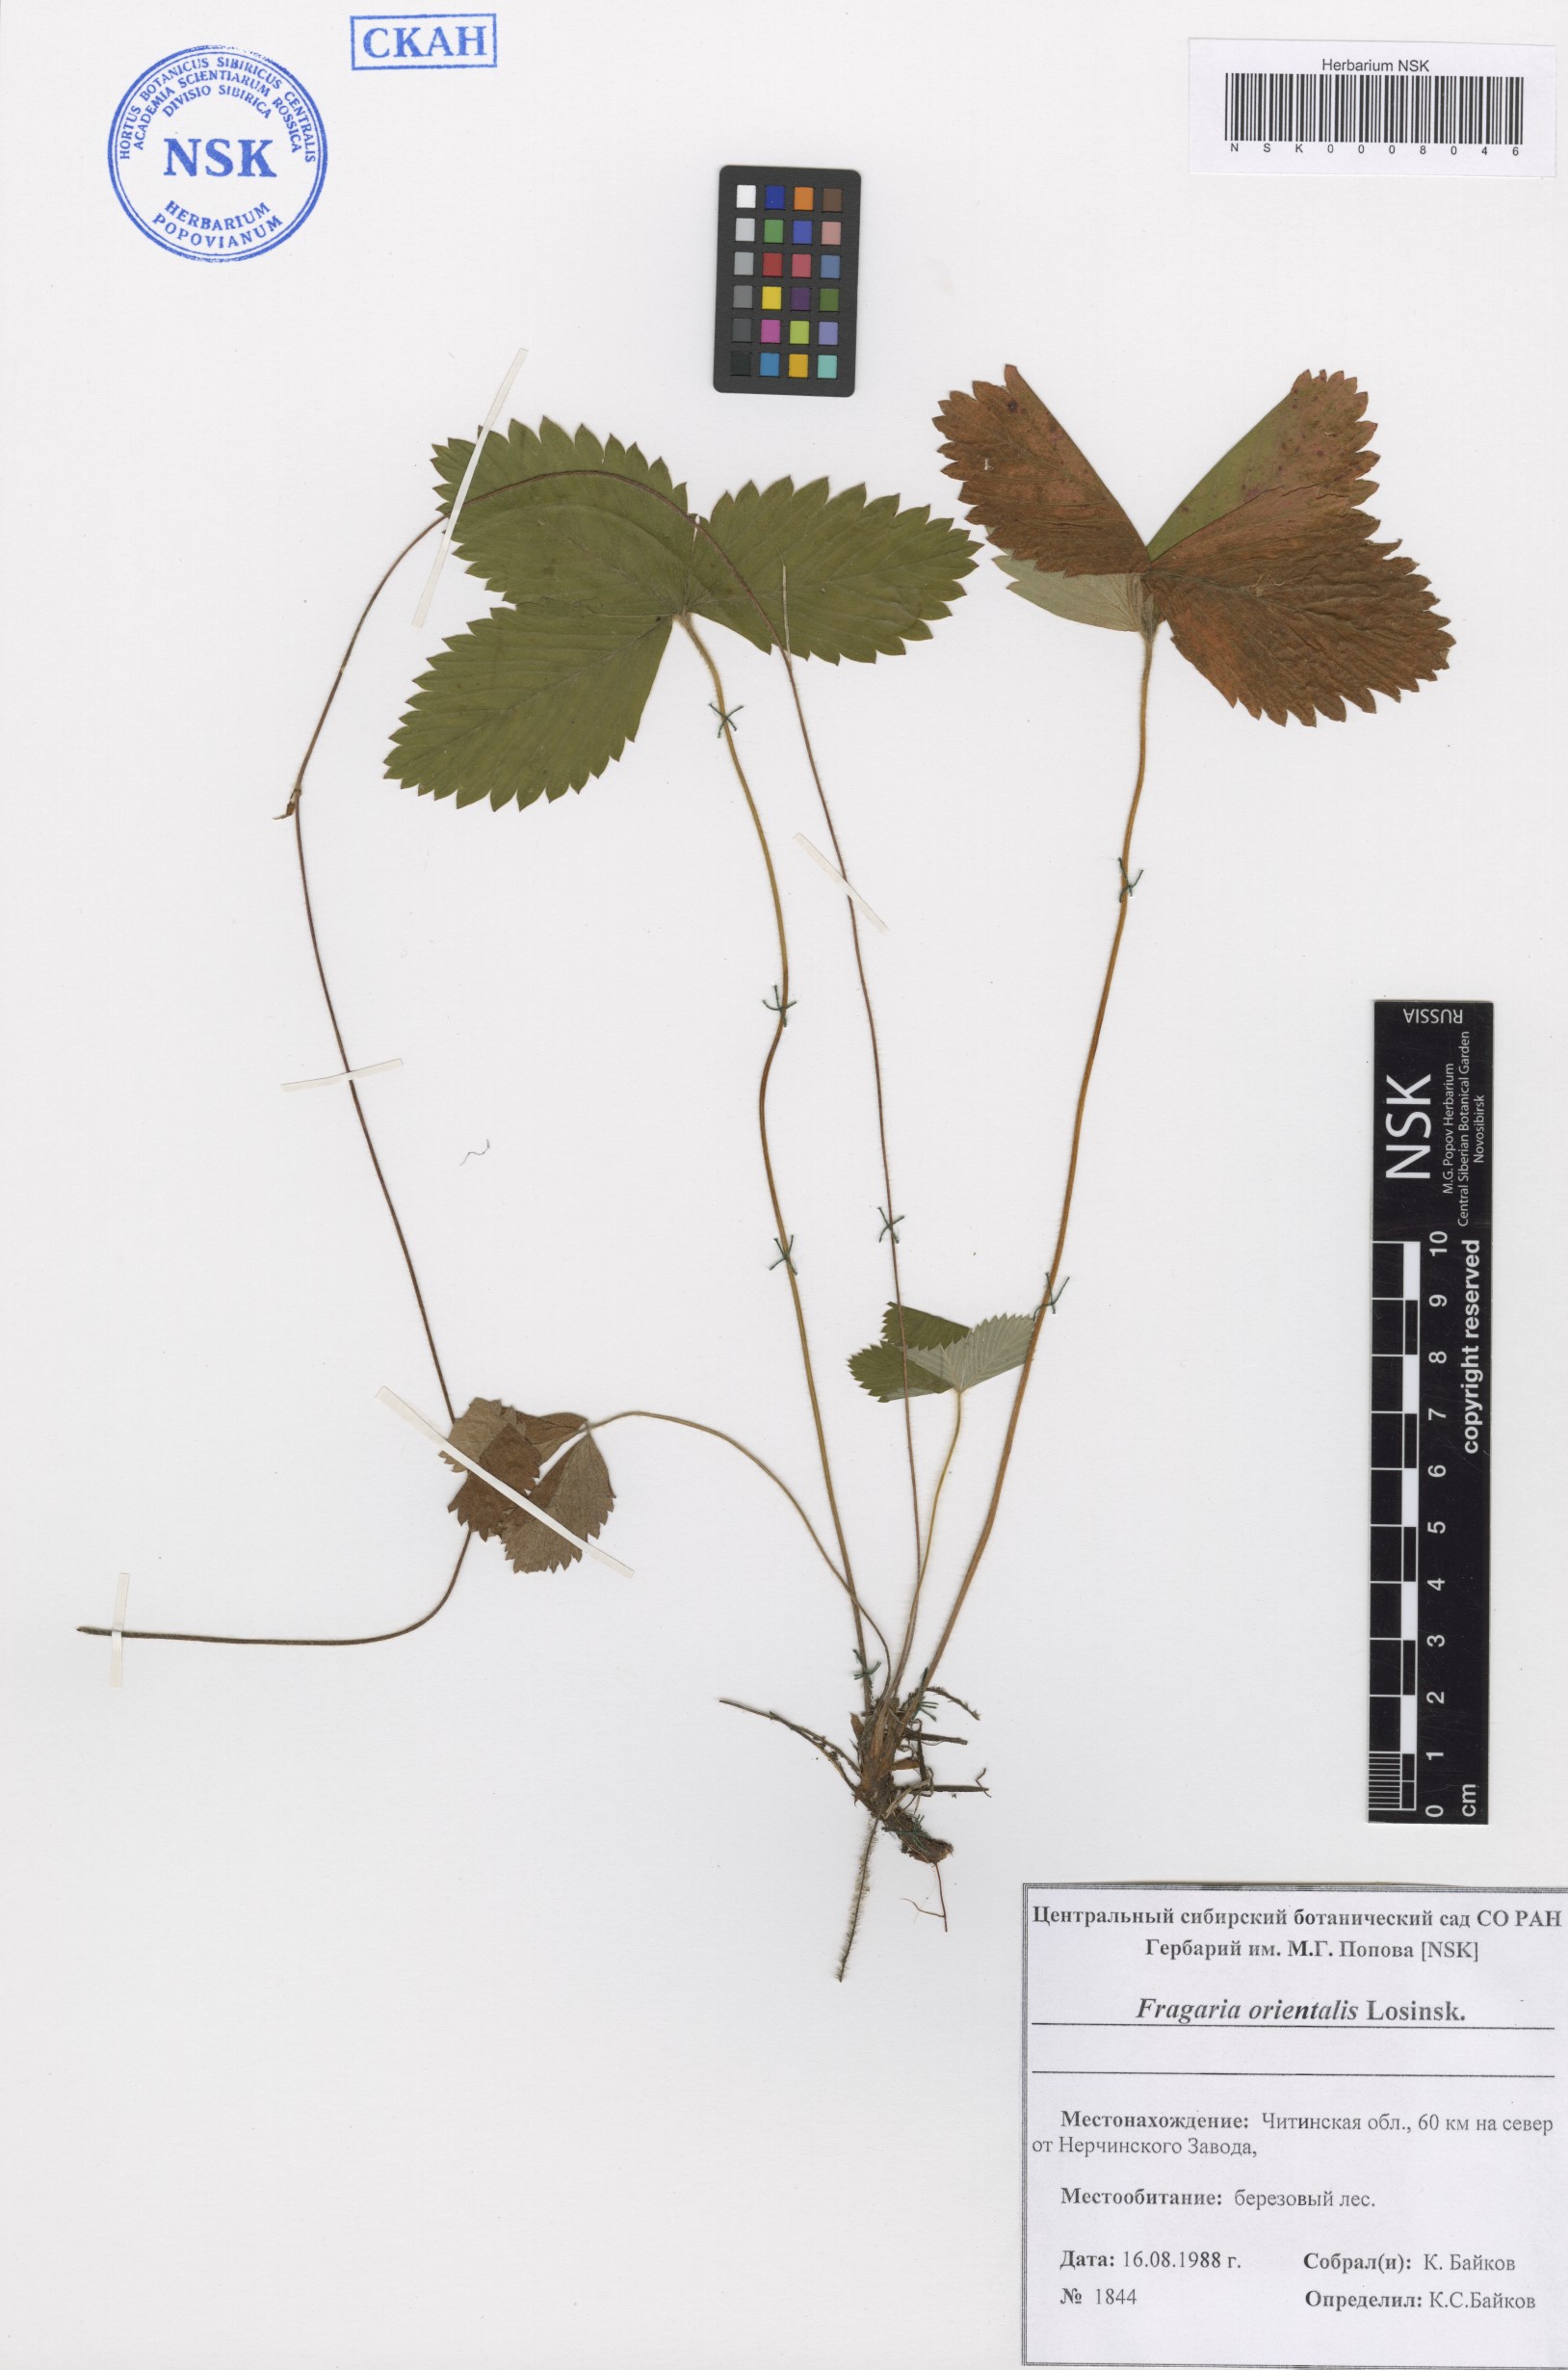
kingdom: Plantae
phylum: Tracheophyta
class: Magnoliopsida
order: Rosales
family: Rosaceae
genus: Fragaria
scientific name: Fragaria orientalis
